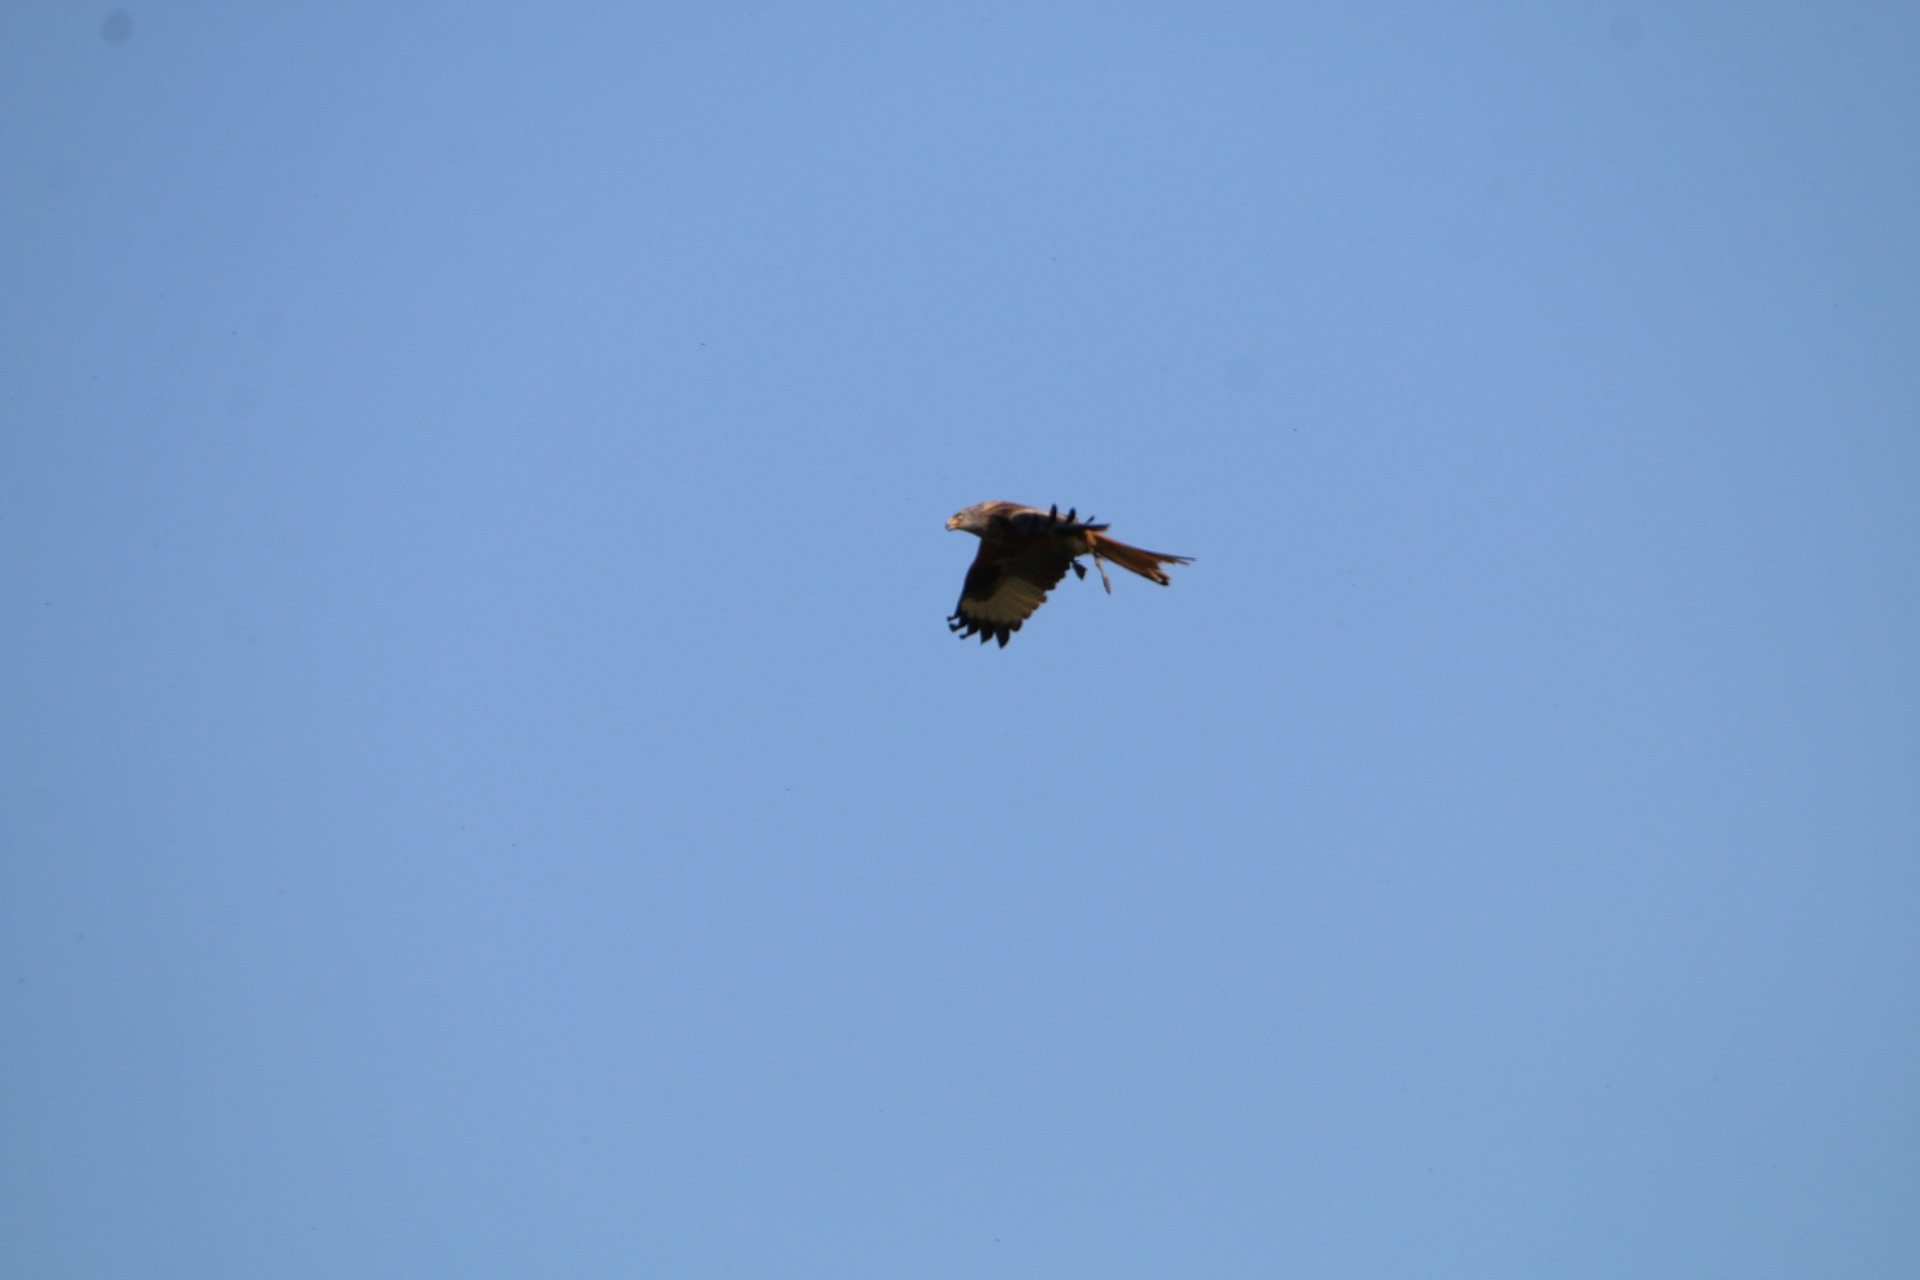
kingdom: Animalia
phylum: Chordata
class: Aves
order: Accipitriformes
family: Accipitridae
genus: Milvus
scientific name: Milvus milvus
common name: Rød glente
